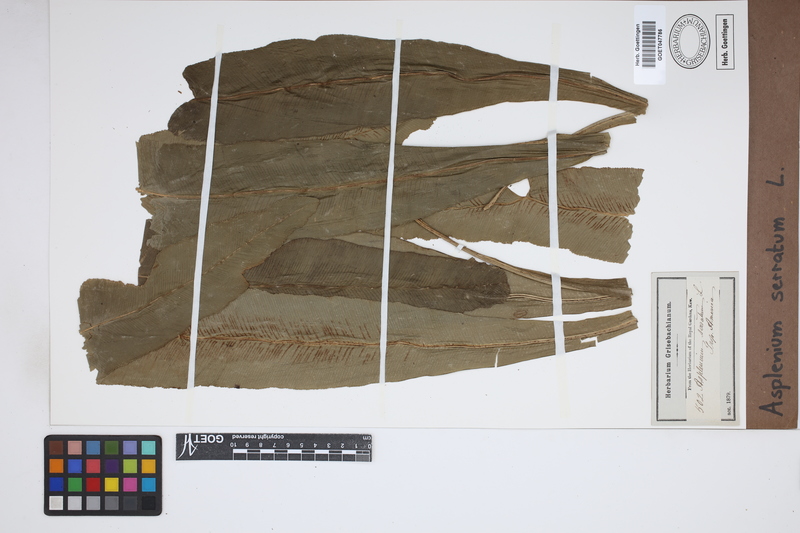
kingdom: Plantae
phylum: Tracheophyta
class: Polypodiopsida
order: Polypodiales
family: Aspleniaceae
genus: Asplenium
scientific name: Asplenium serratum
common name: Wild birdnest fern
